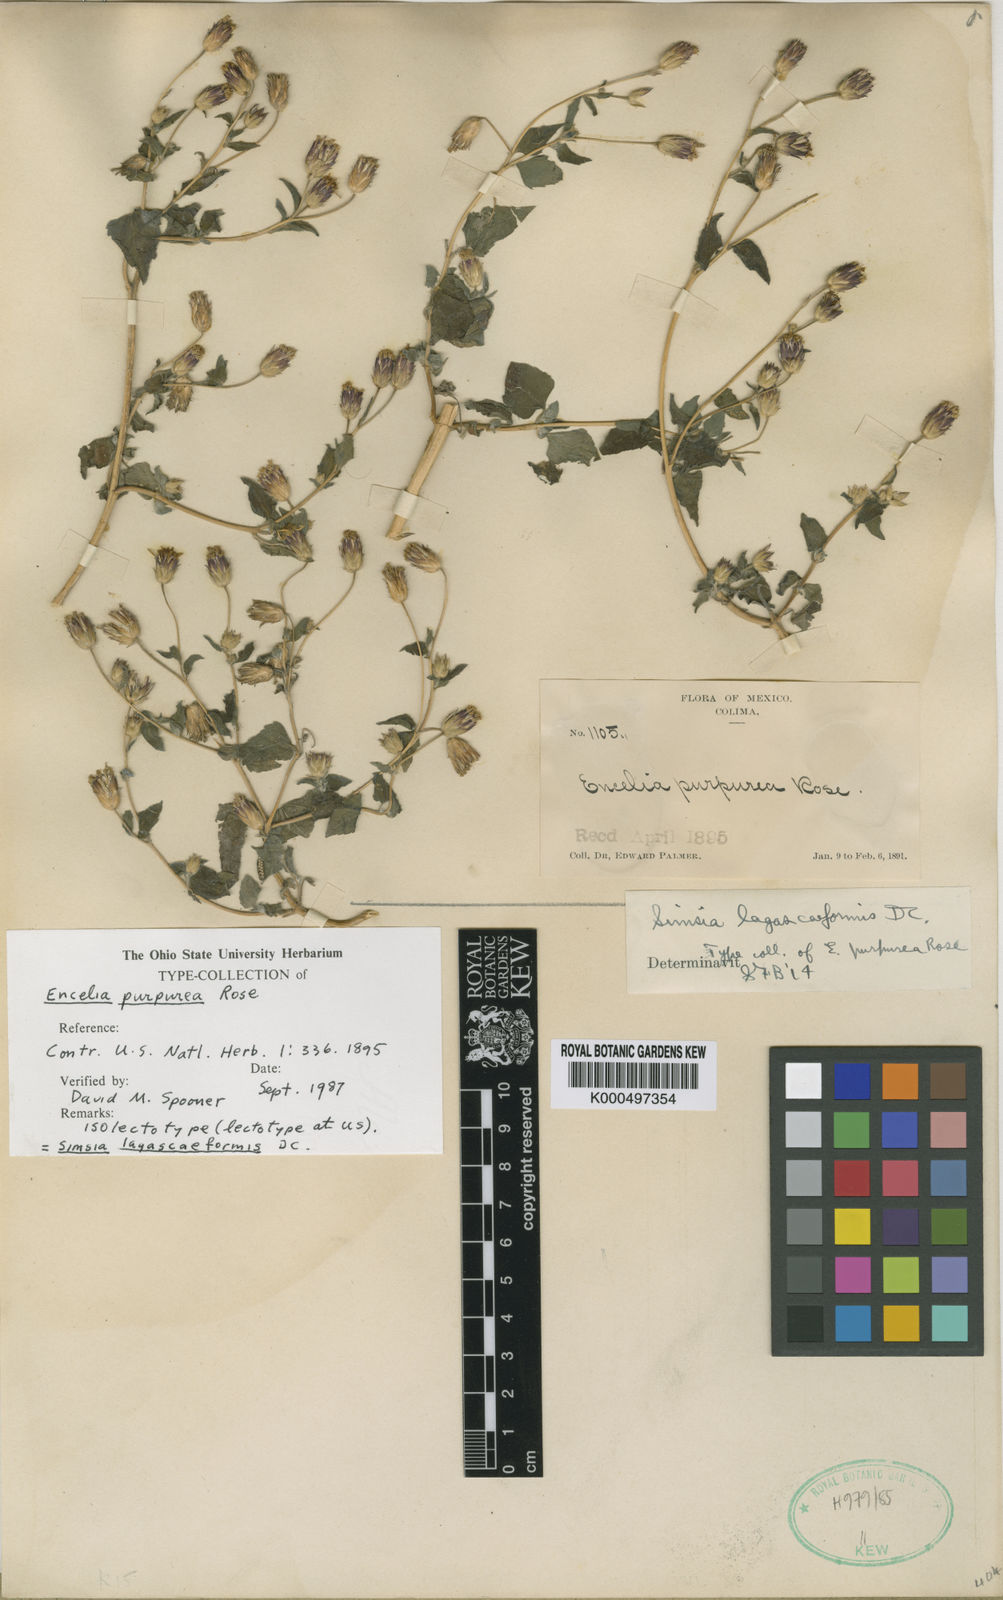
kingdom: Plantae
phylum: Tracheophyta
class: Magnoliopsida
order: Asterales
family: Asteraceae
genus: Simsia
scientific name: Simsia
